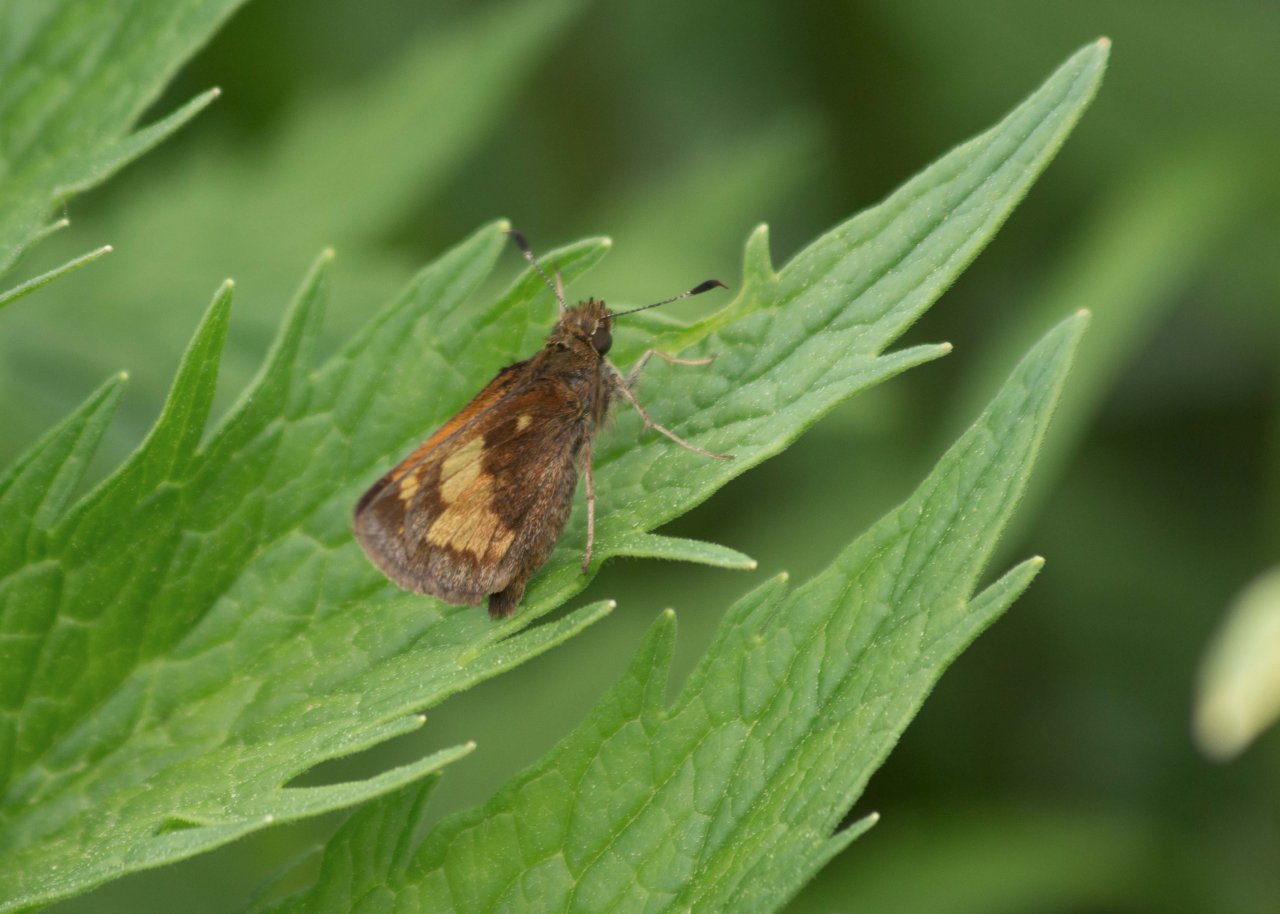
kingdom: Animalia
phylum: Arthropoda
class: Insecta
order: Lepidoptera
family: Hesperiidae
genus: Lon
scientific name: Lon hobomok
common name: Hobomok Skipper
